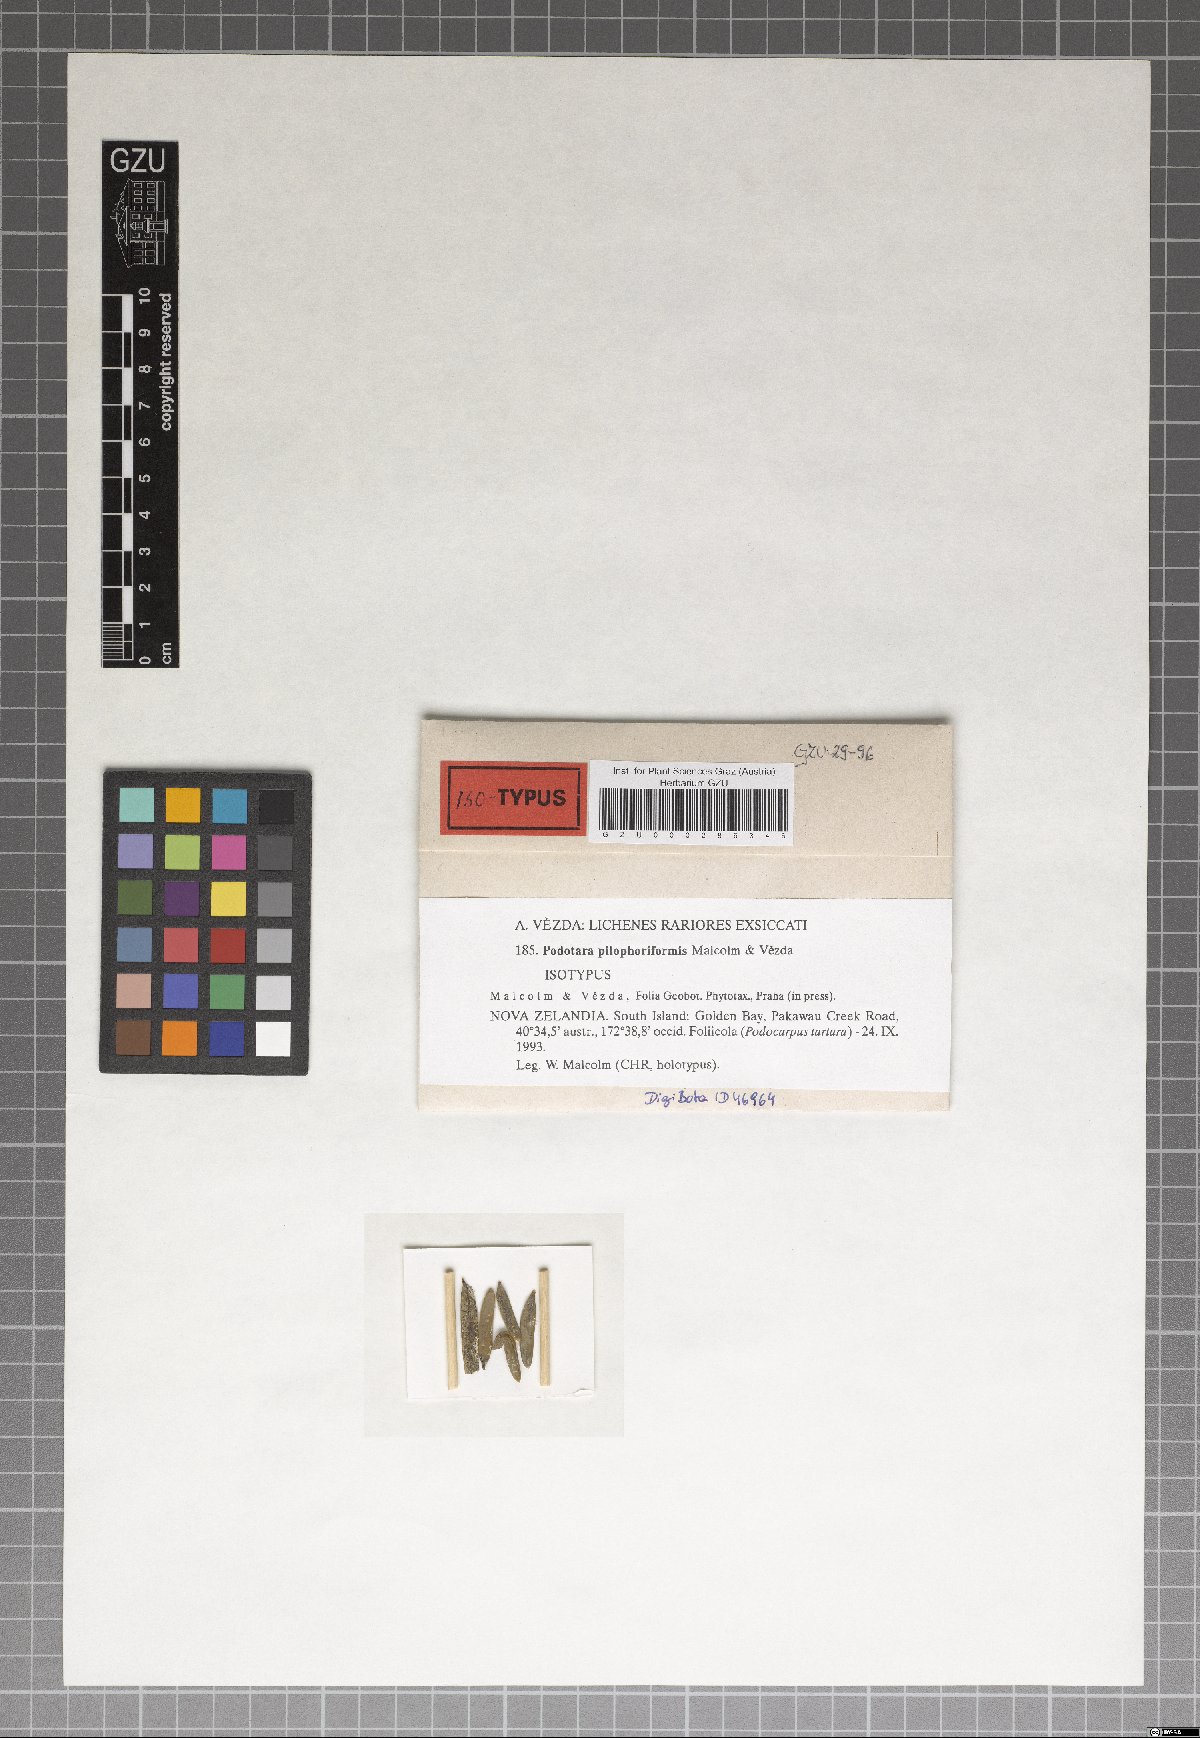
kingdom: Fungi
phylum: Ascomycota
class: Lecanoromycetes
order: Lecanorales
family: Byssolomataceae
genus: Podotara
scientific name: Podotara pilophoriformis
